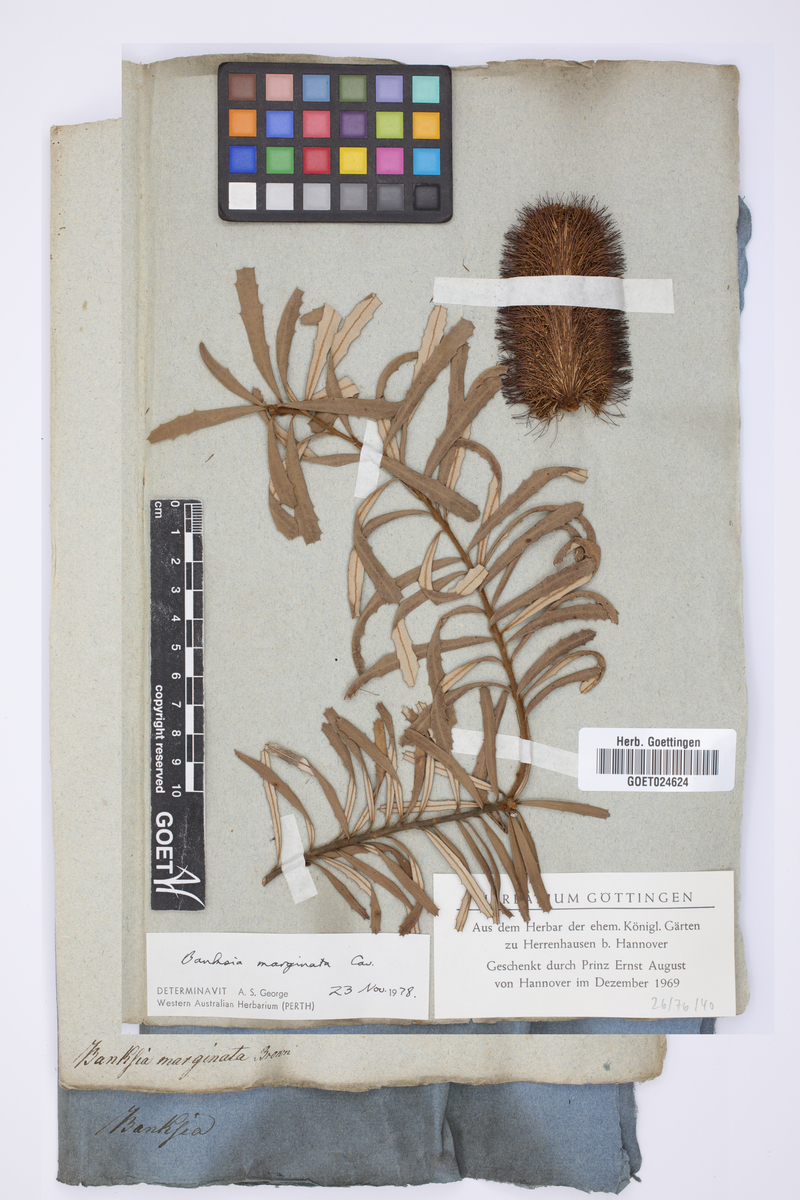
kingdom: Plantae
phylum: Tracheophyta
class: Magnoliopsida
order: Proteales
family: Proteaceae
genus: Banksia
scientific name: Banksia marginata
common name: Silver banksia
